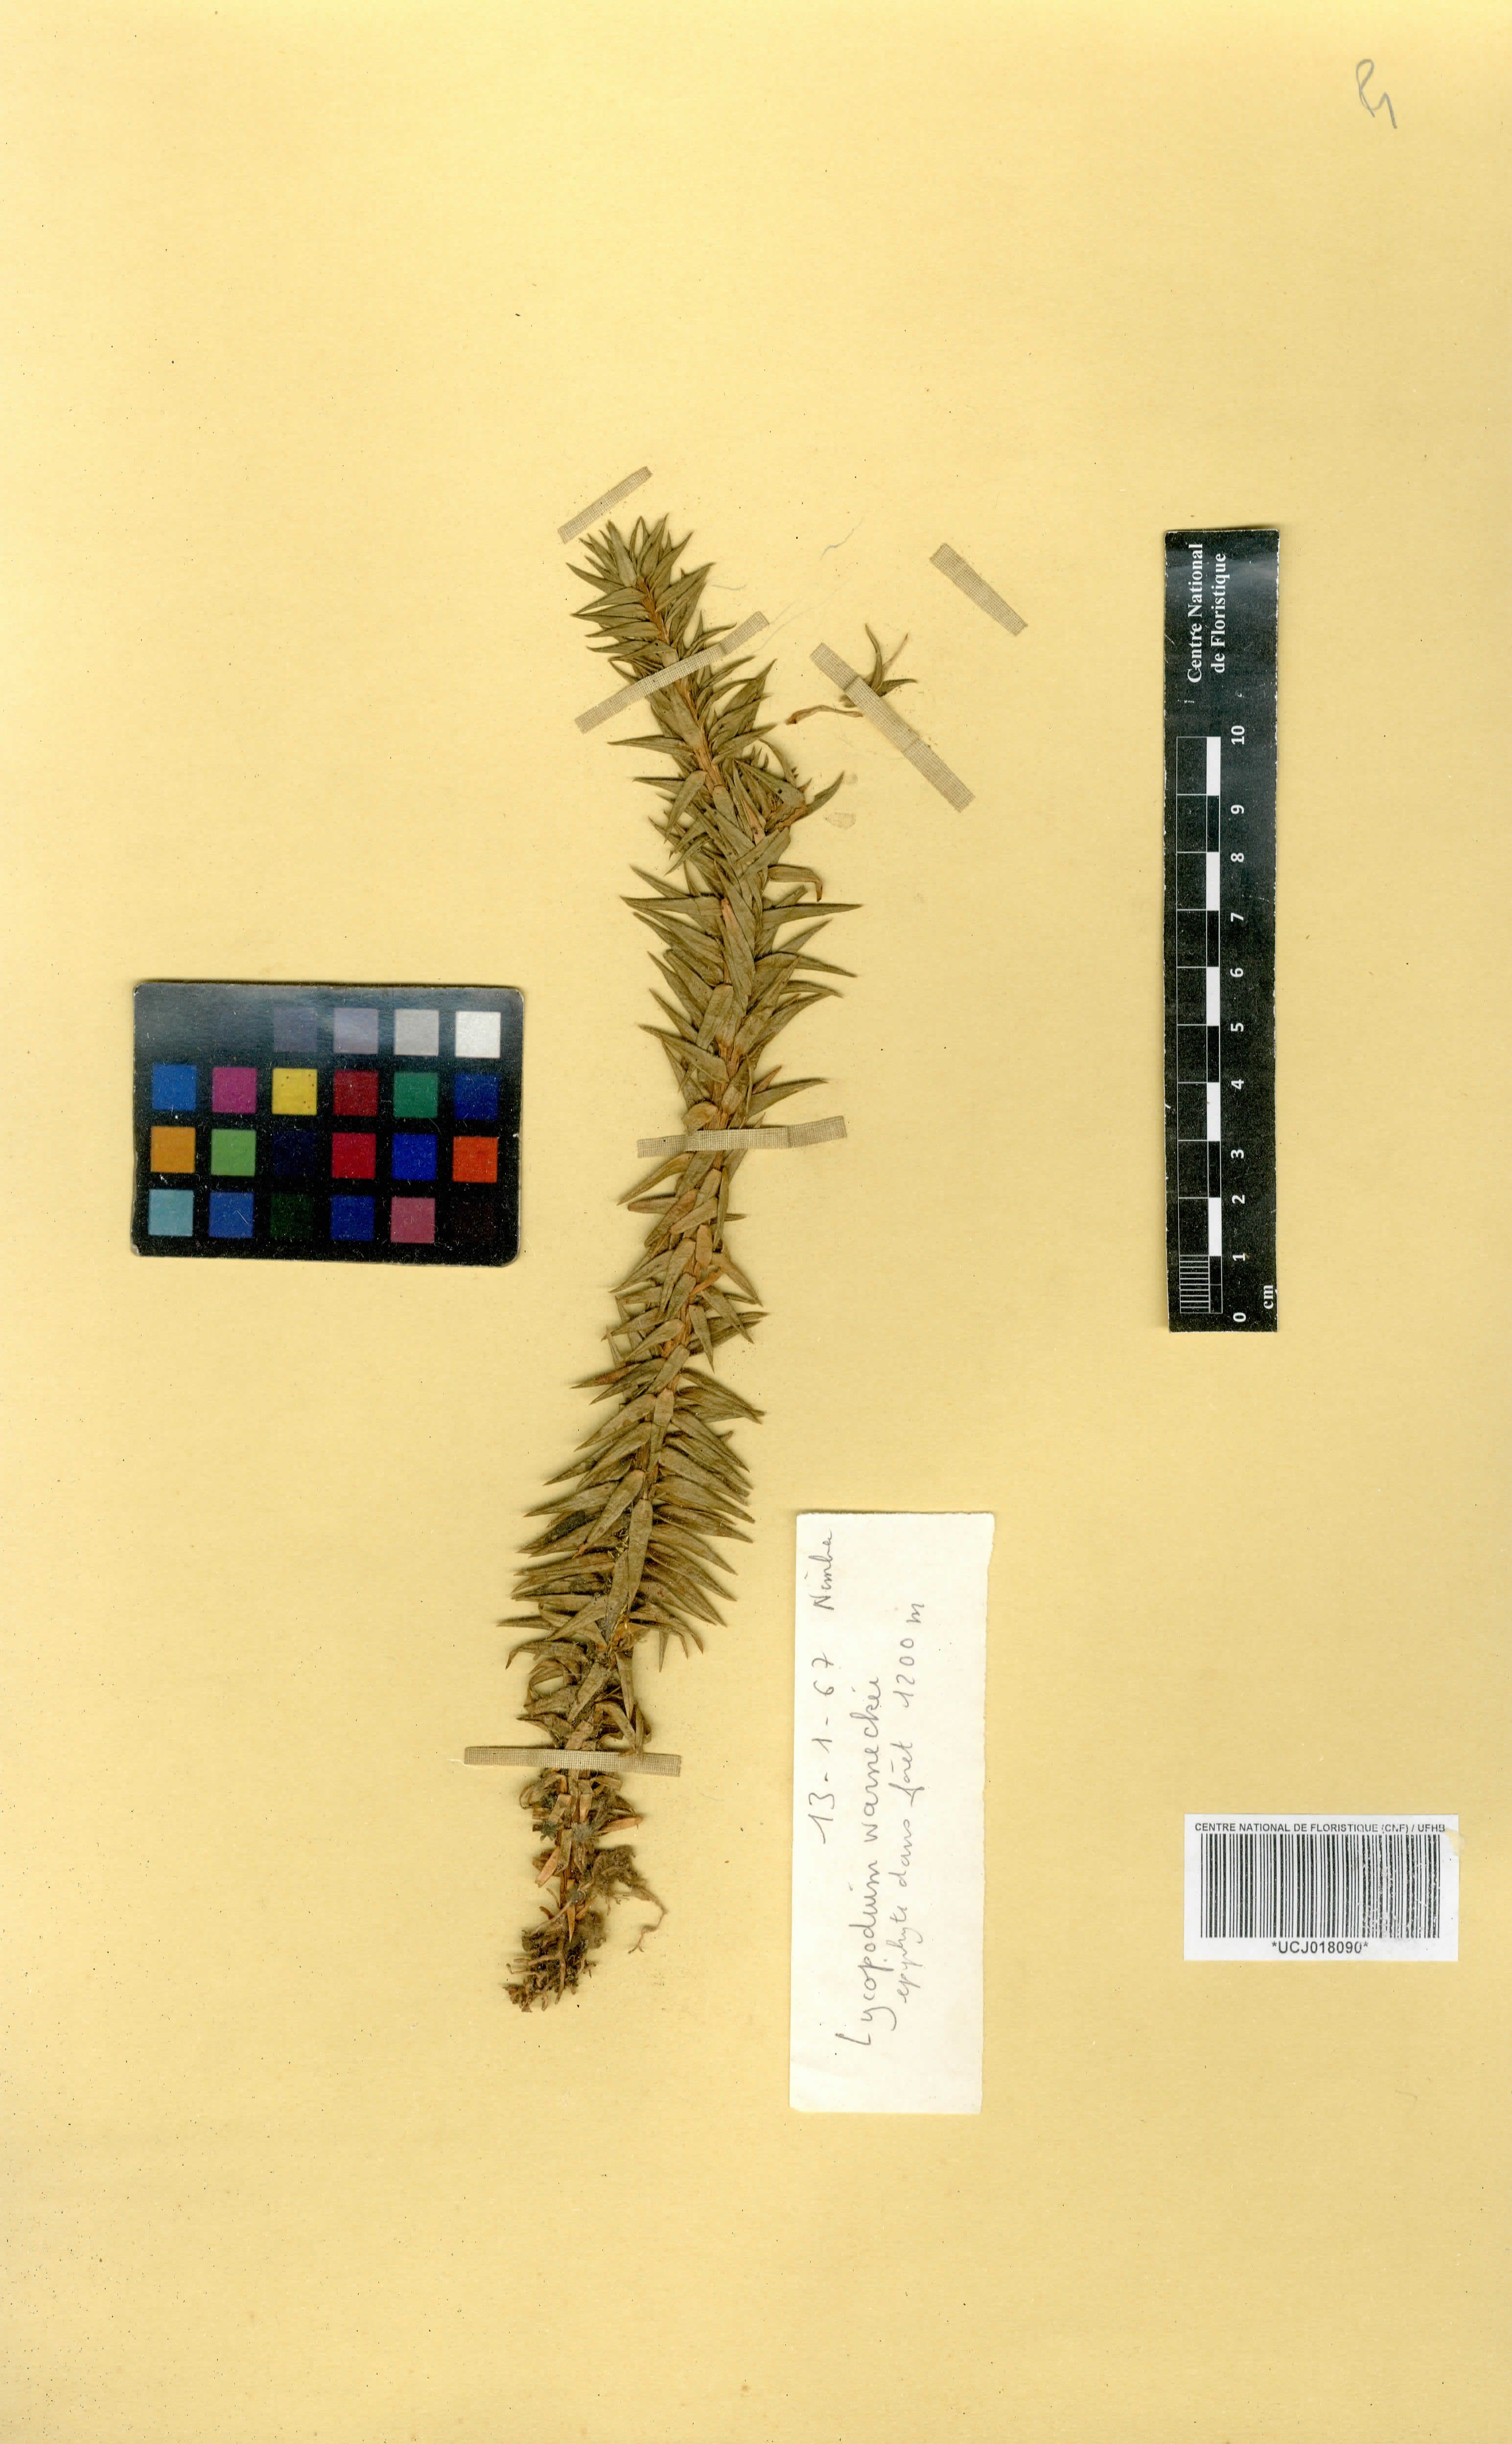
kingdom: Plantae
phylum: Tracheophyta
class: Lycopodiopsida
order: Lycopodiales
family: Lycopodiaceae
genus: Phlegmariurus
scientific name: Phlegmariurus warneckei
